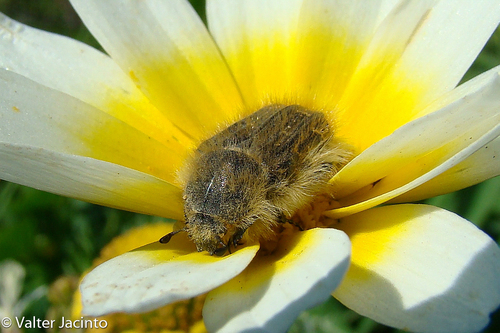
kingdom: Animalia
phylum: Arthropoda
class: Insecta
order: Coleoptera
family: Scarabaeidae
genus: Tropinota
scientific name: Tropinota squalida
